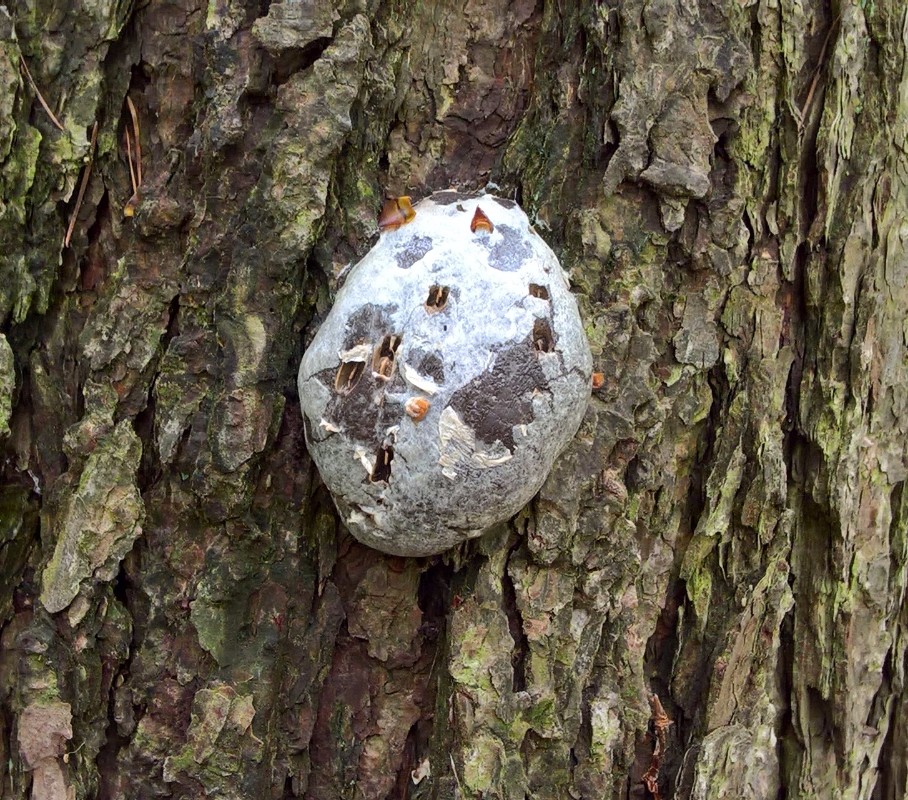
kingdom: Protozoa
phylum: Mycetozoa
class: Myxomycetes
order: Cribrariales
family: Tubiferaceae
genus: Reticularia
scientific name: Reticularia lycoperdon
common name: skinnende støvpude
